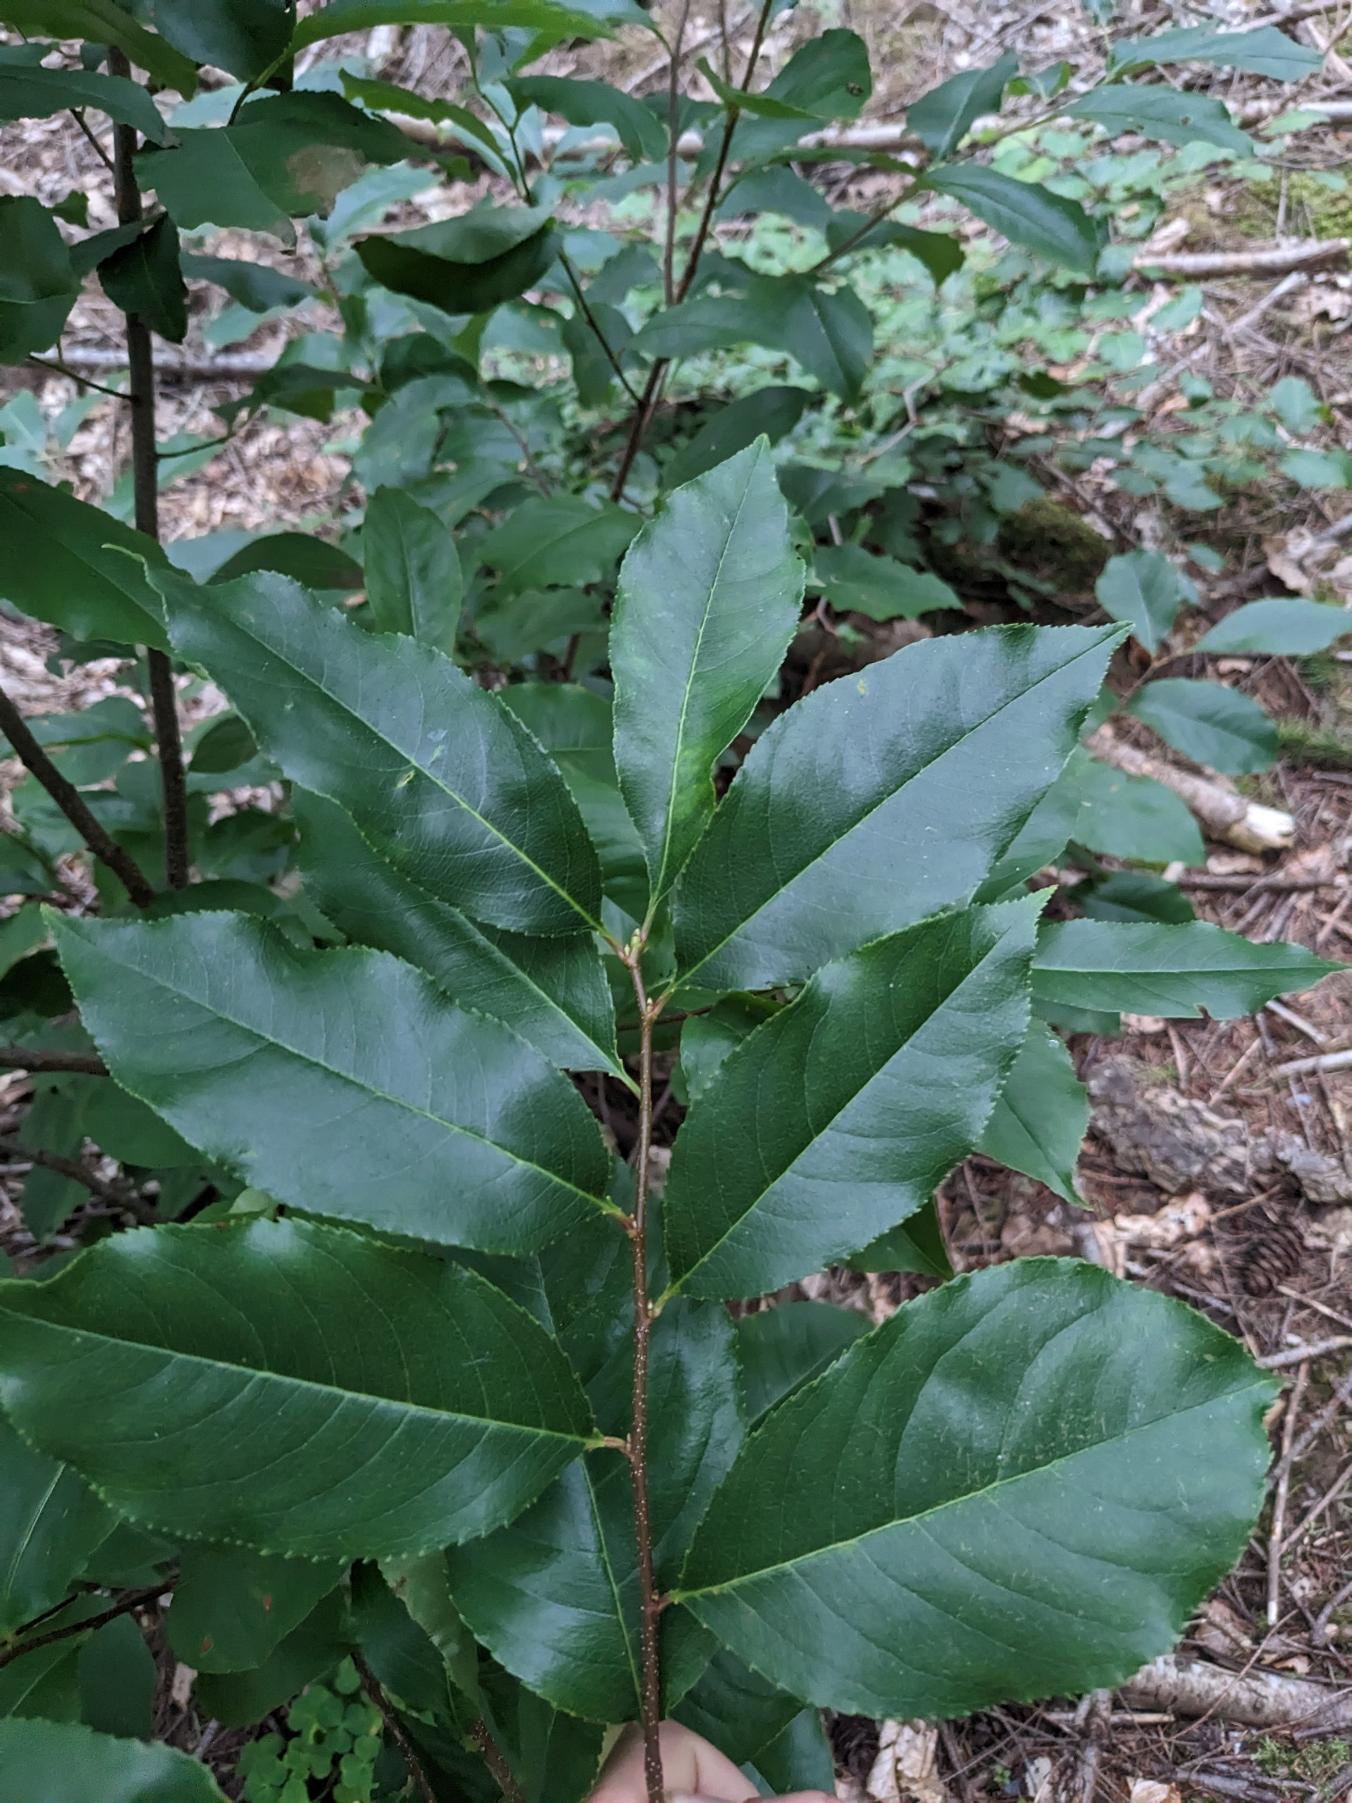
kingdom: Plantae
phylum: Tracheophyta
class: Magnoliopsida
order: Rosales
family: Rosaceae
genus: Prunus
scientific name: Prunus serotina
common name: Glansbladet hæg
